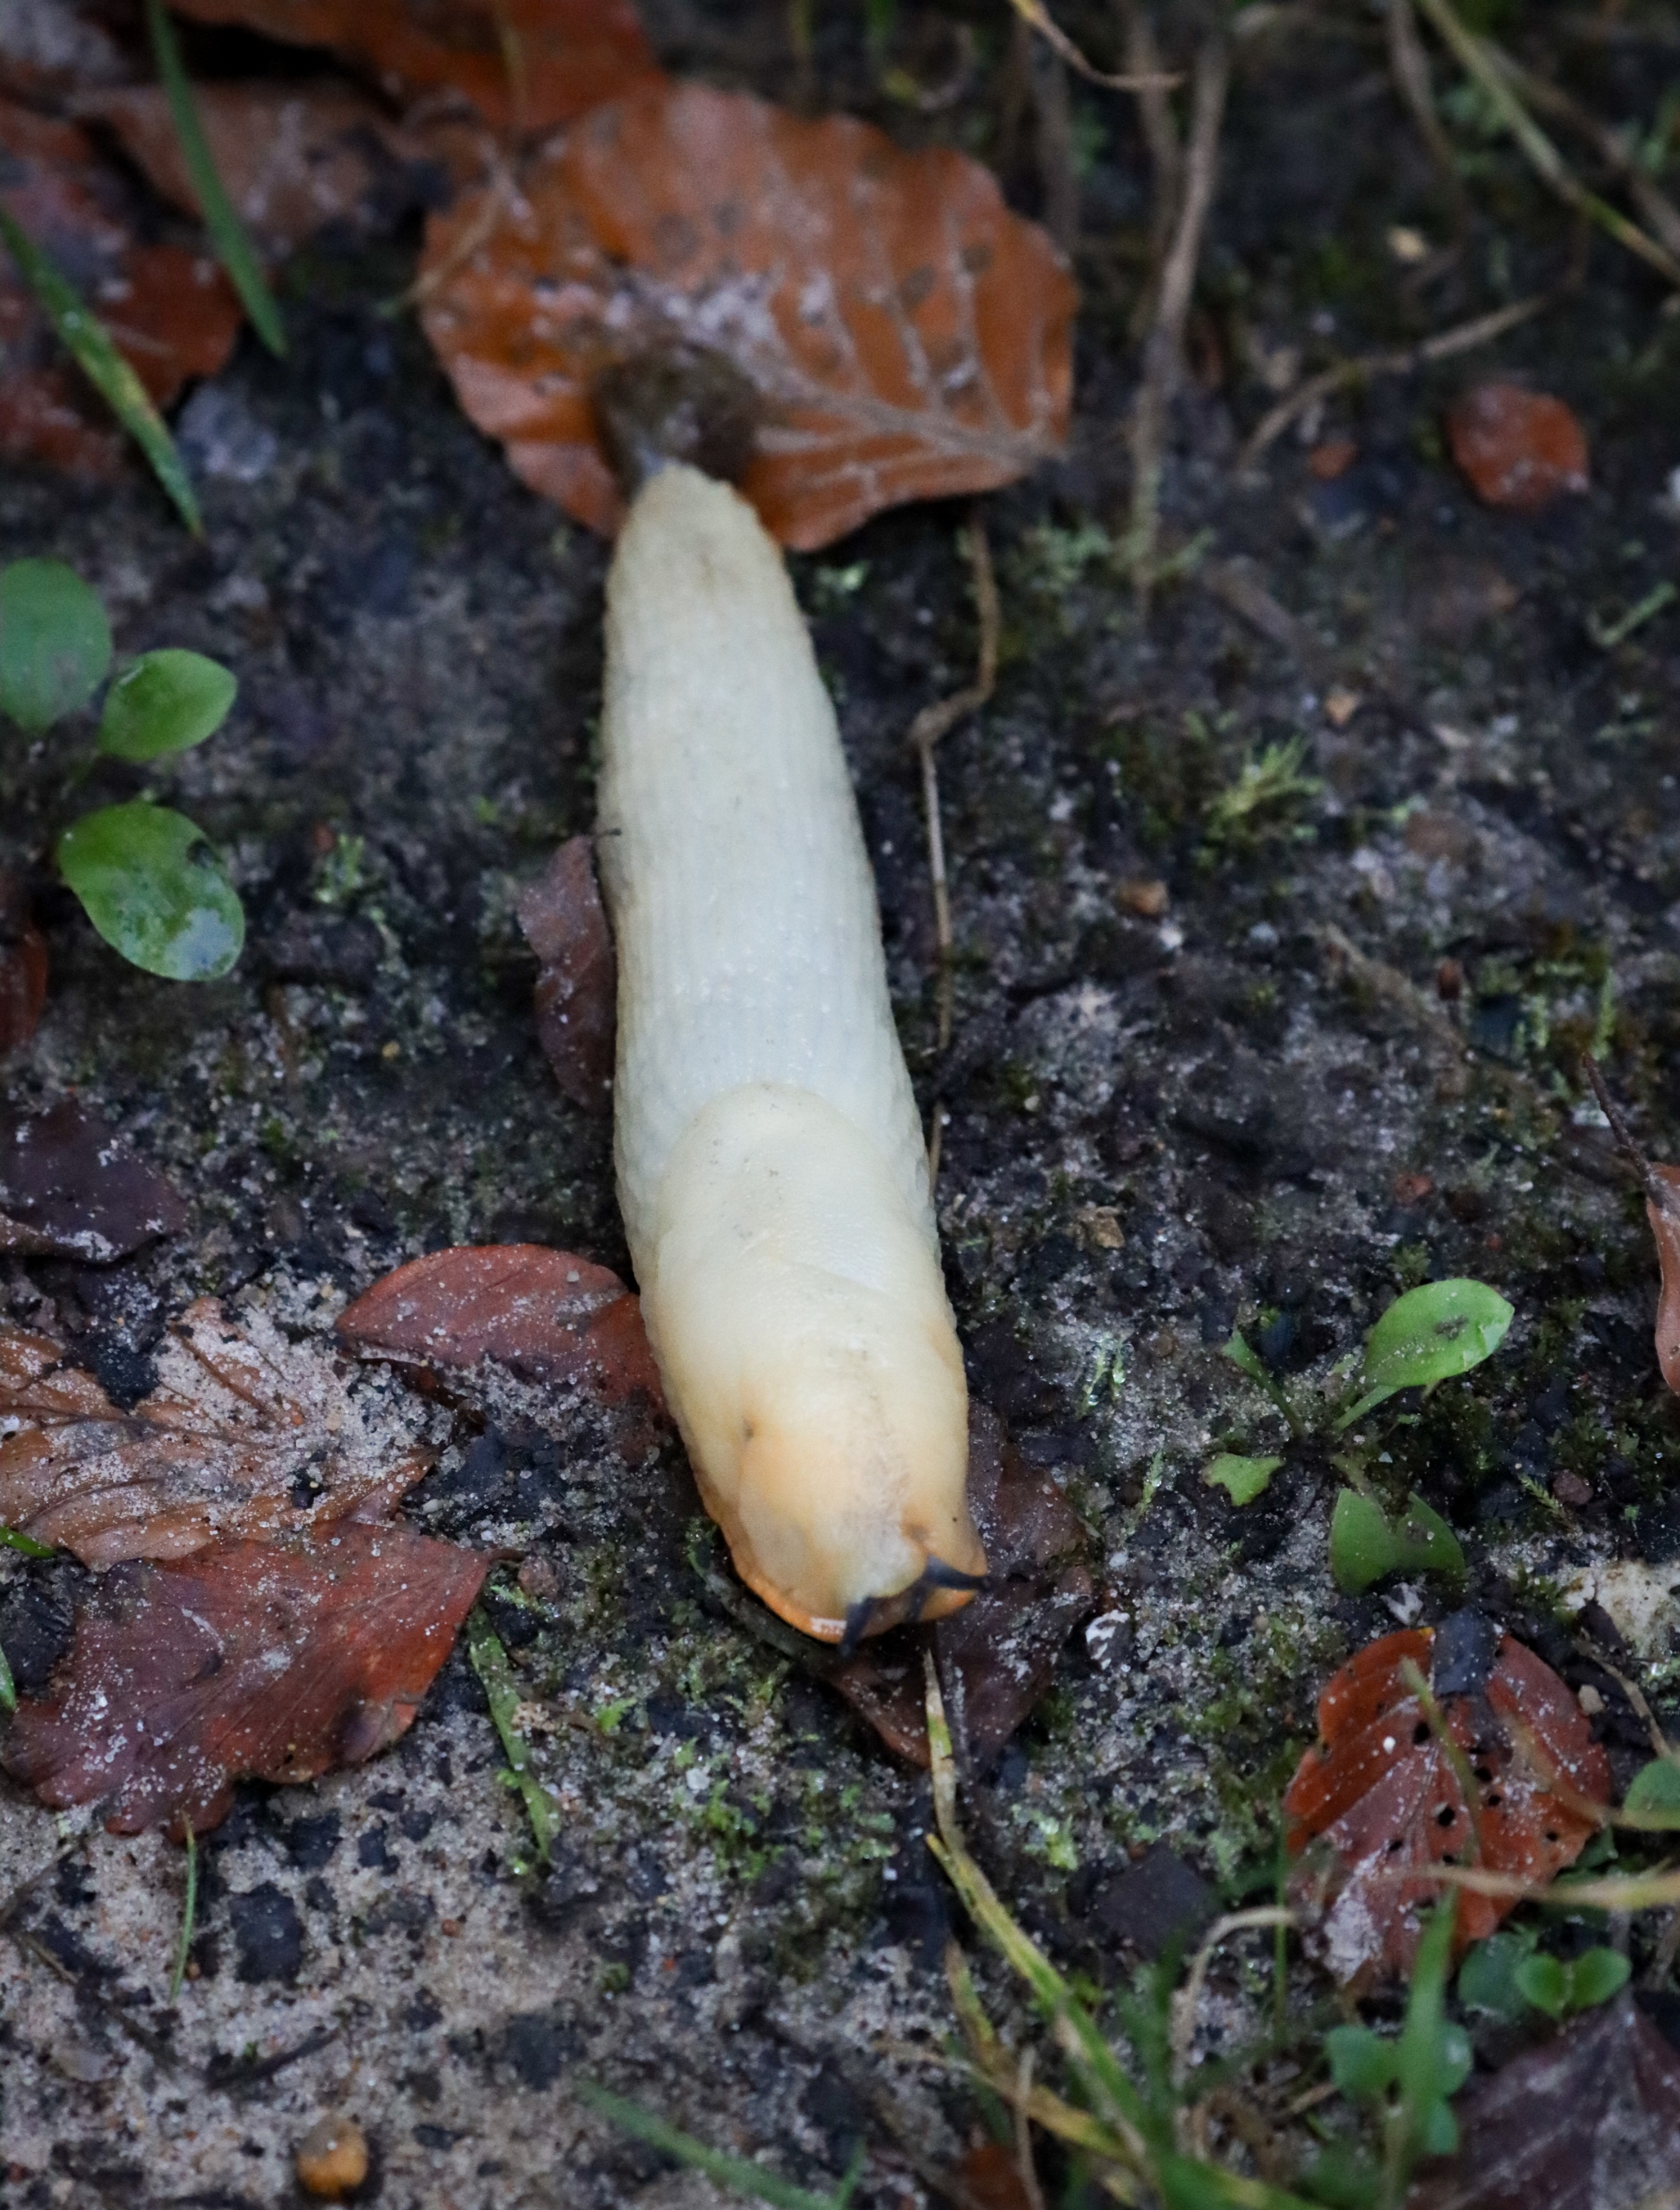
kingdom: Animalia
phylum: Mollusca
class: Gastropoda
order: Stylommatophora
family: Arionidae
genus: Arion
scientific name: Arion ater
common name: Sort skovsnegl
